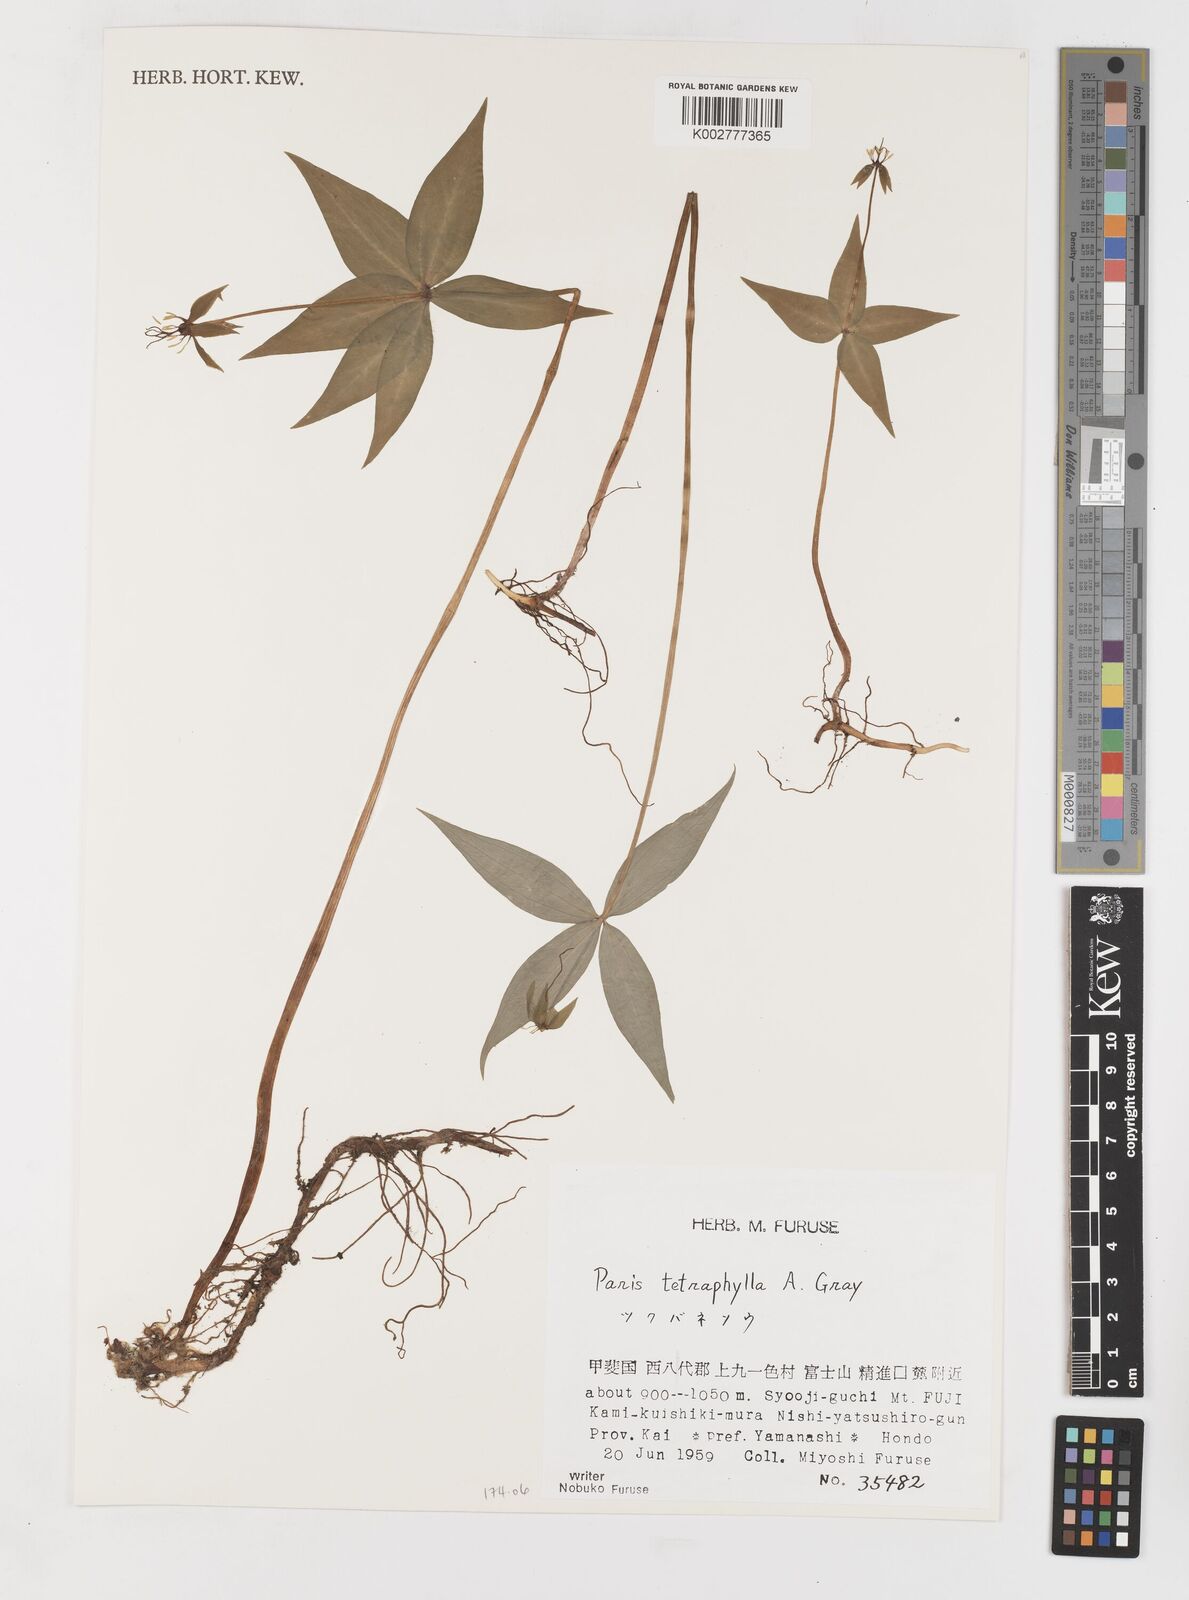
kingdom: Plantae
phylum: Tracheophyta
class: Liliopsida
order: Liliales
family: Melanthiaceae
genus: Paris
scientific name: Paris tetraphylla
